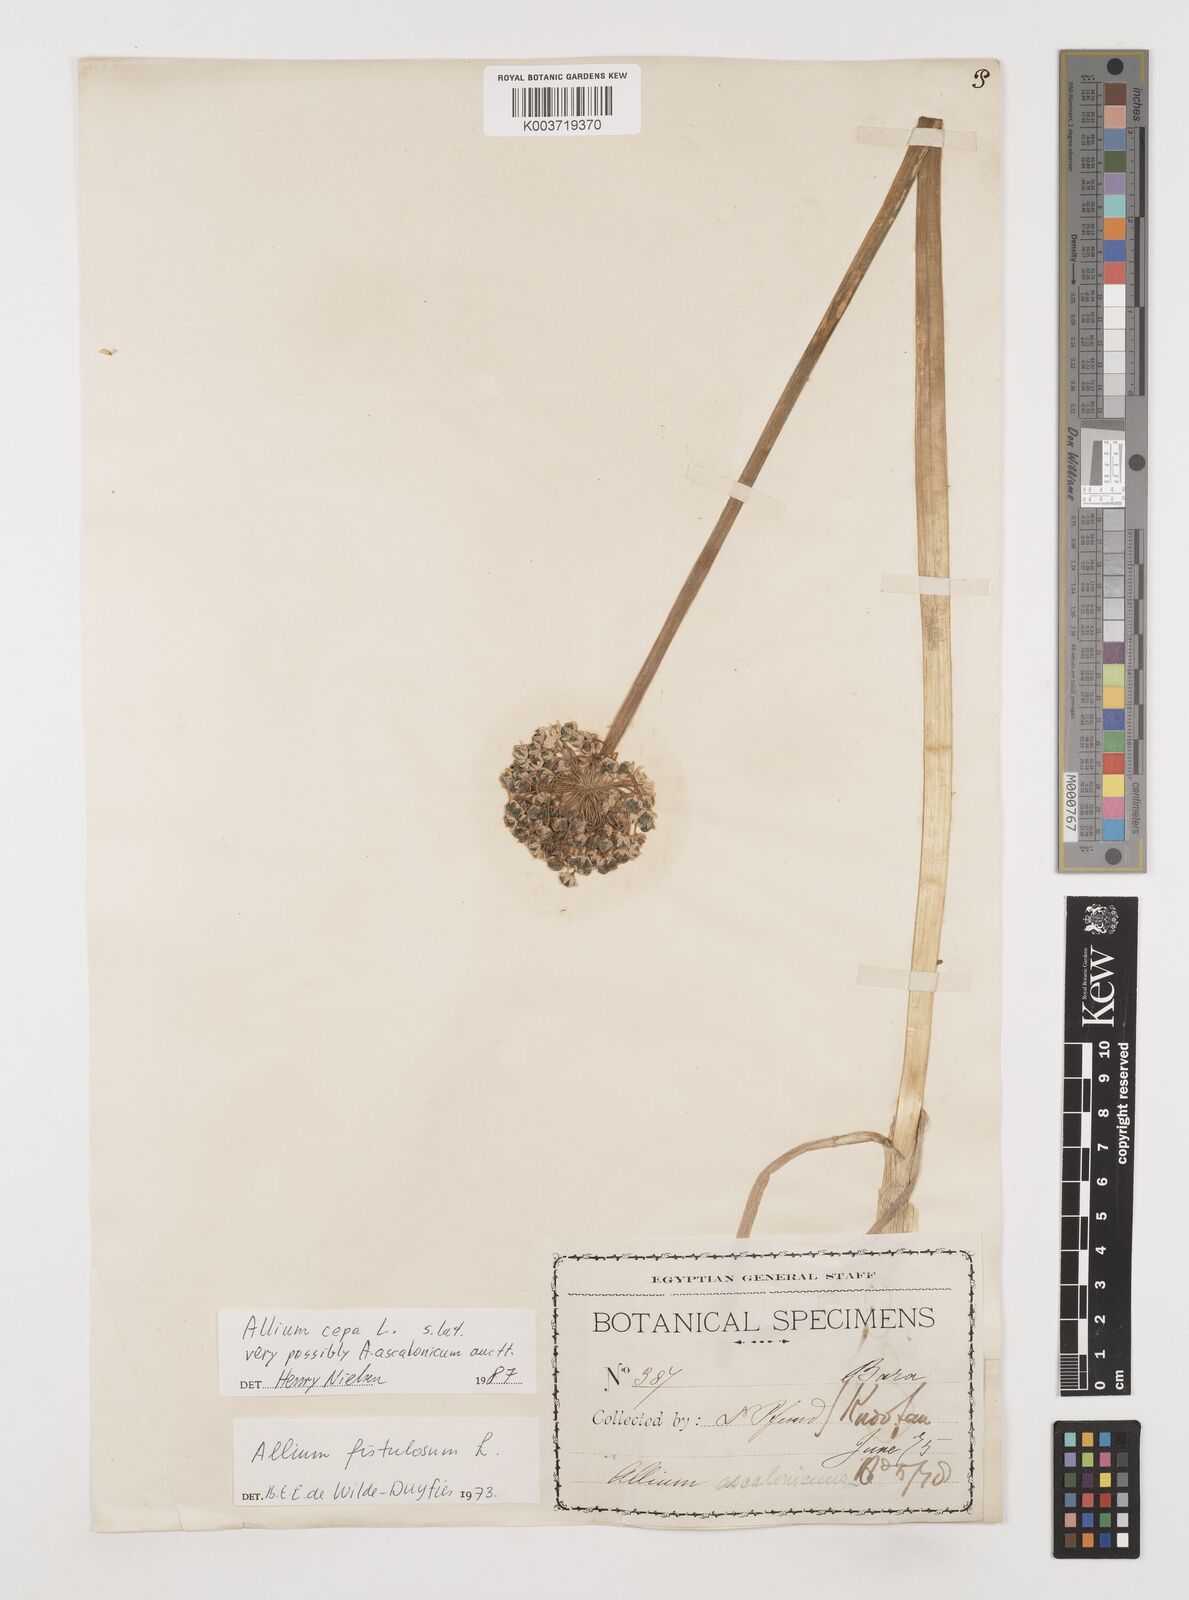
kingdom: Plantae
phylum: Tracheophyta
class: Liliopsida
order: Asparagales
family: Amaryllidaceae
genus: Allium
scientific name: Allium cepa
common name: Onion
